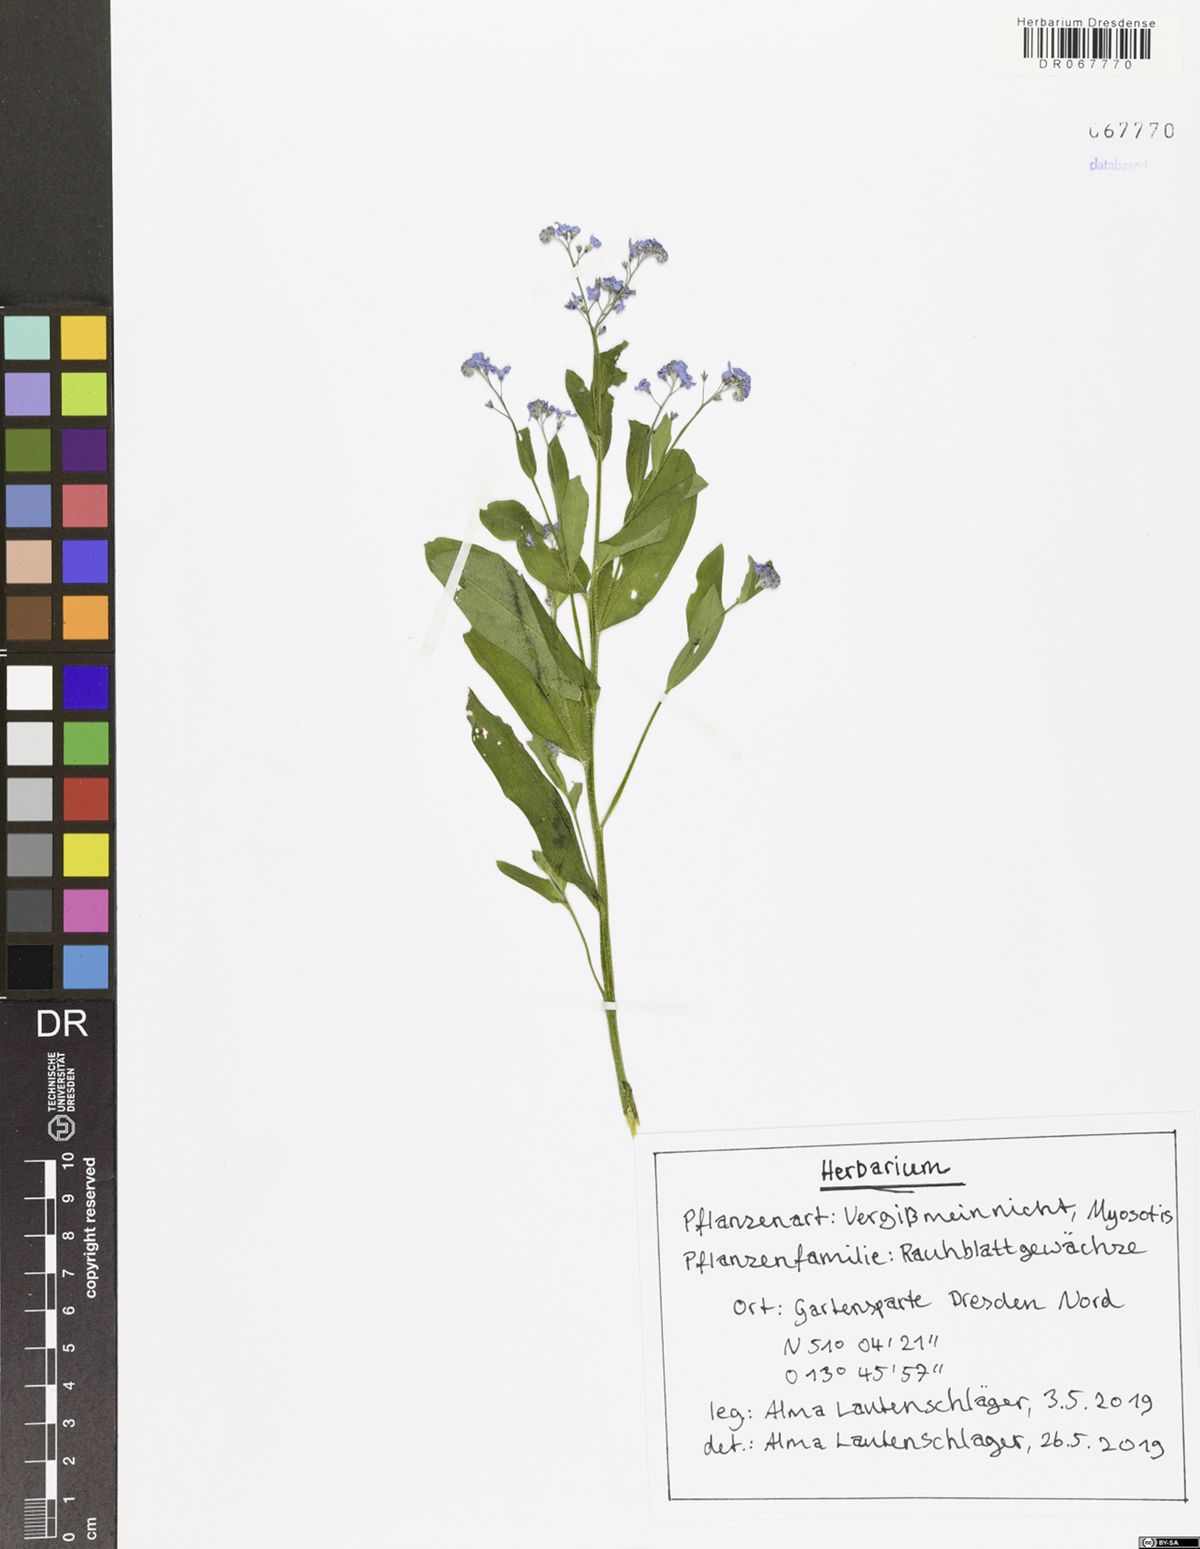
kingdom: Plantae
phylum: Tracheophyta
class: Magnoliopsida
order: Boraginales
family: Boraginaceae
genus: Myosotis
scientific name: Myosotis
